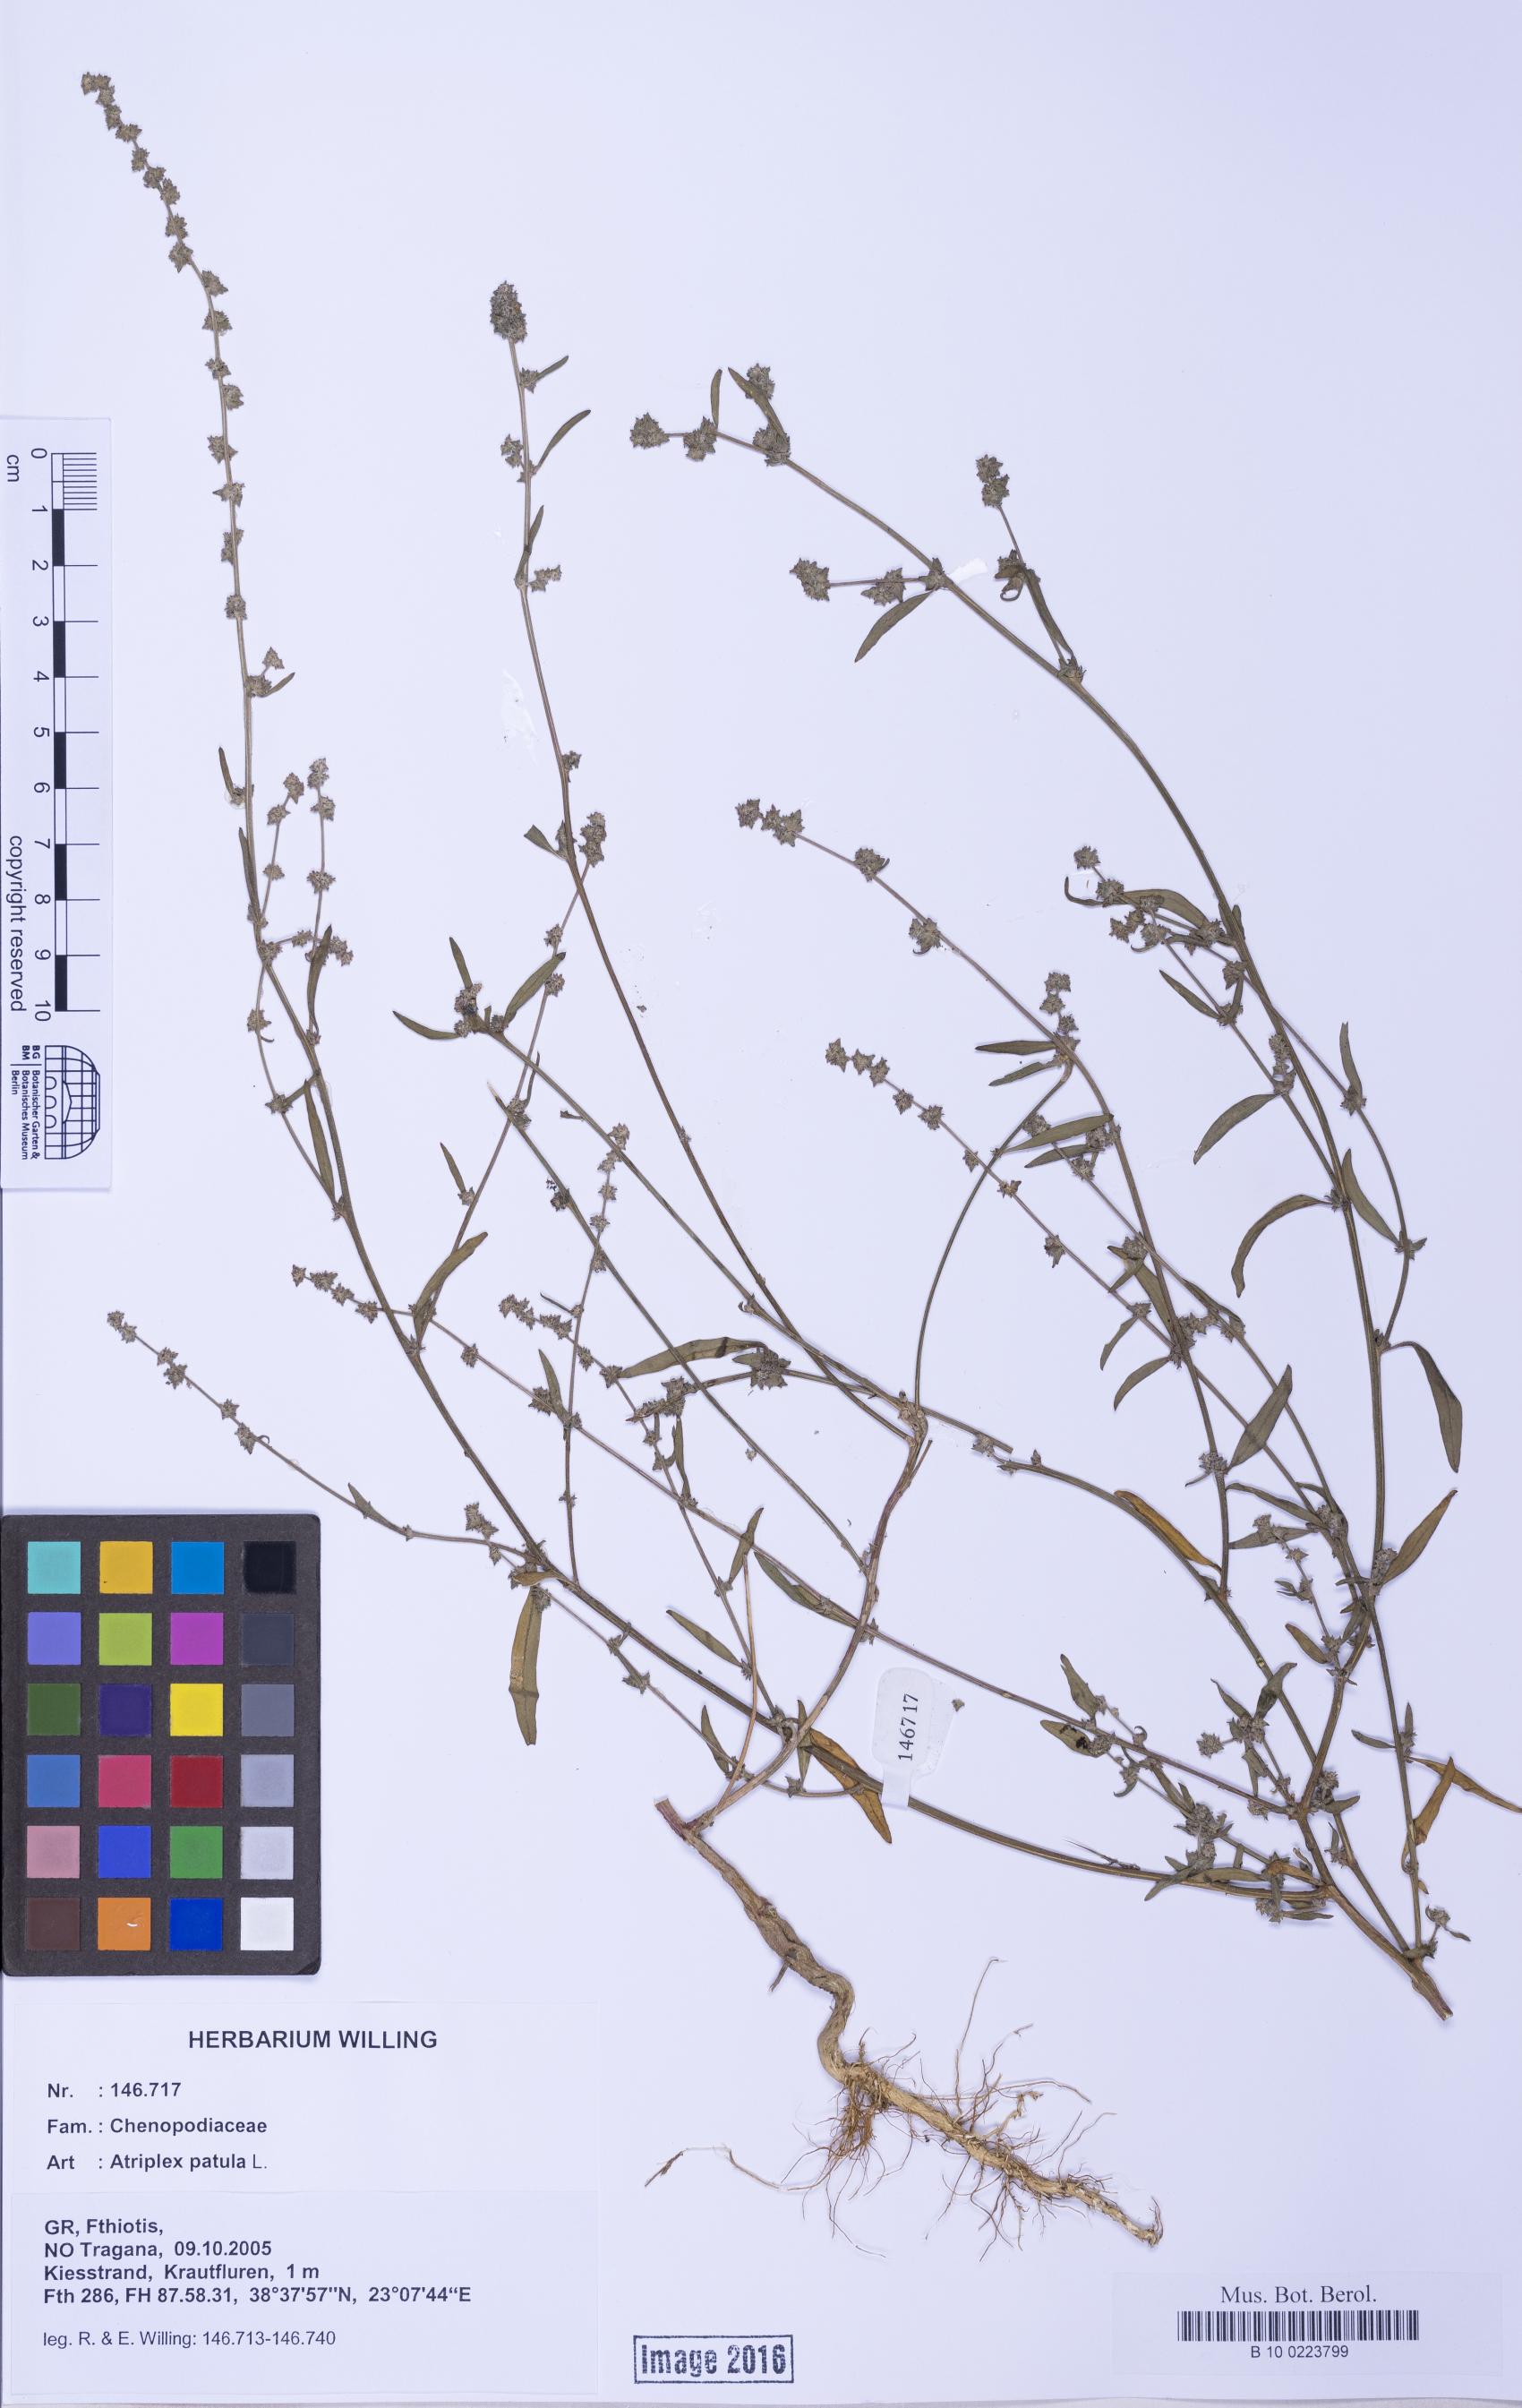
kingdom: Plantae
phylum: Tracheophyta
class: Magnoliopsida
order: Caryophyllales
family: Amaranthaceae
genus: Atriplex
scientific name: Atriplex patula
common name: Common orache
